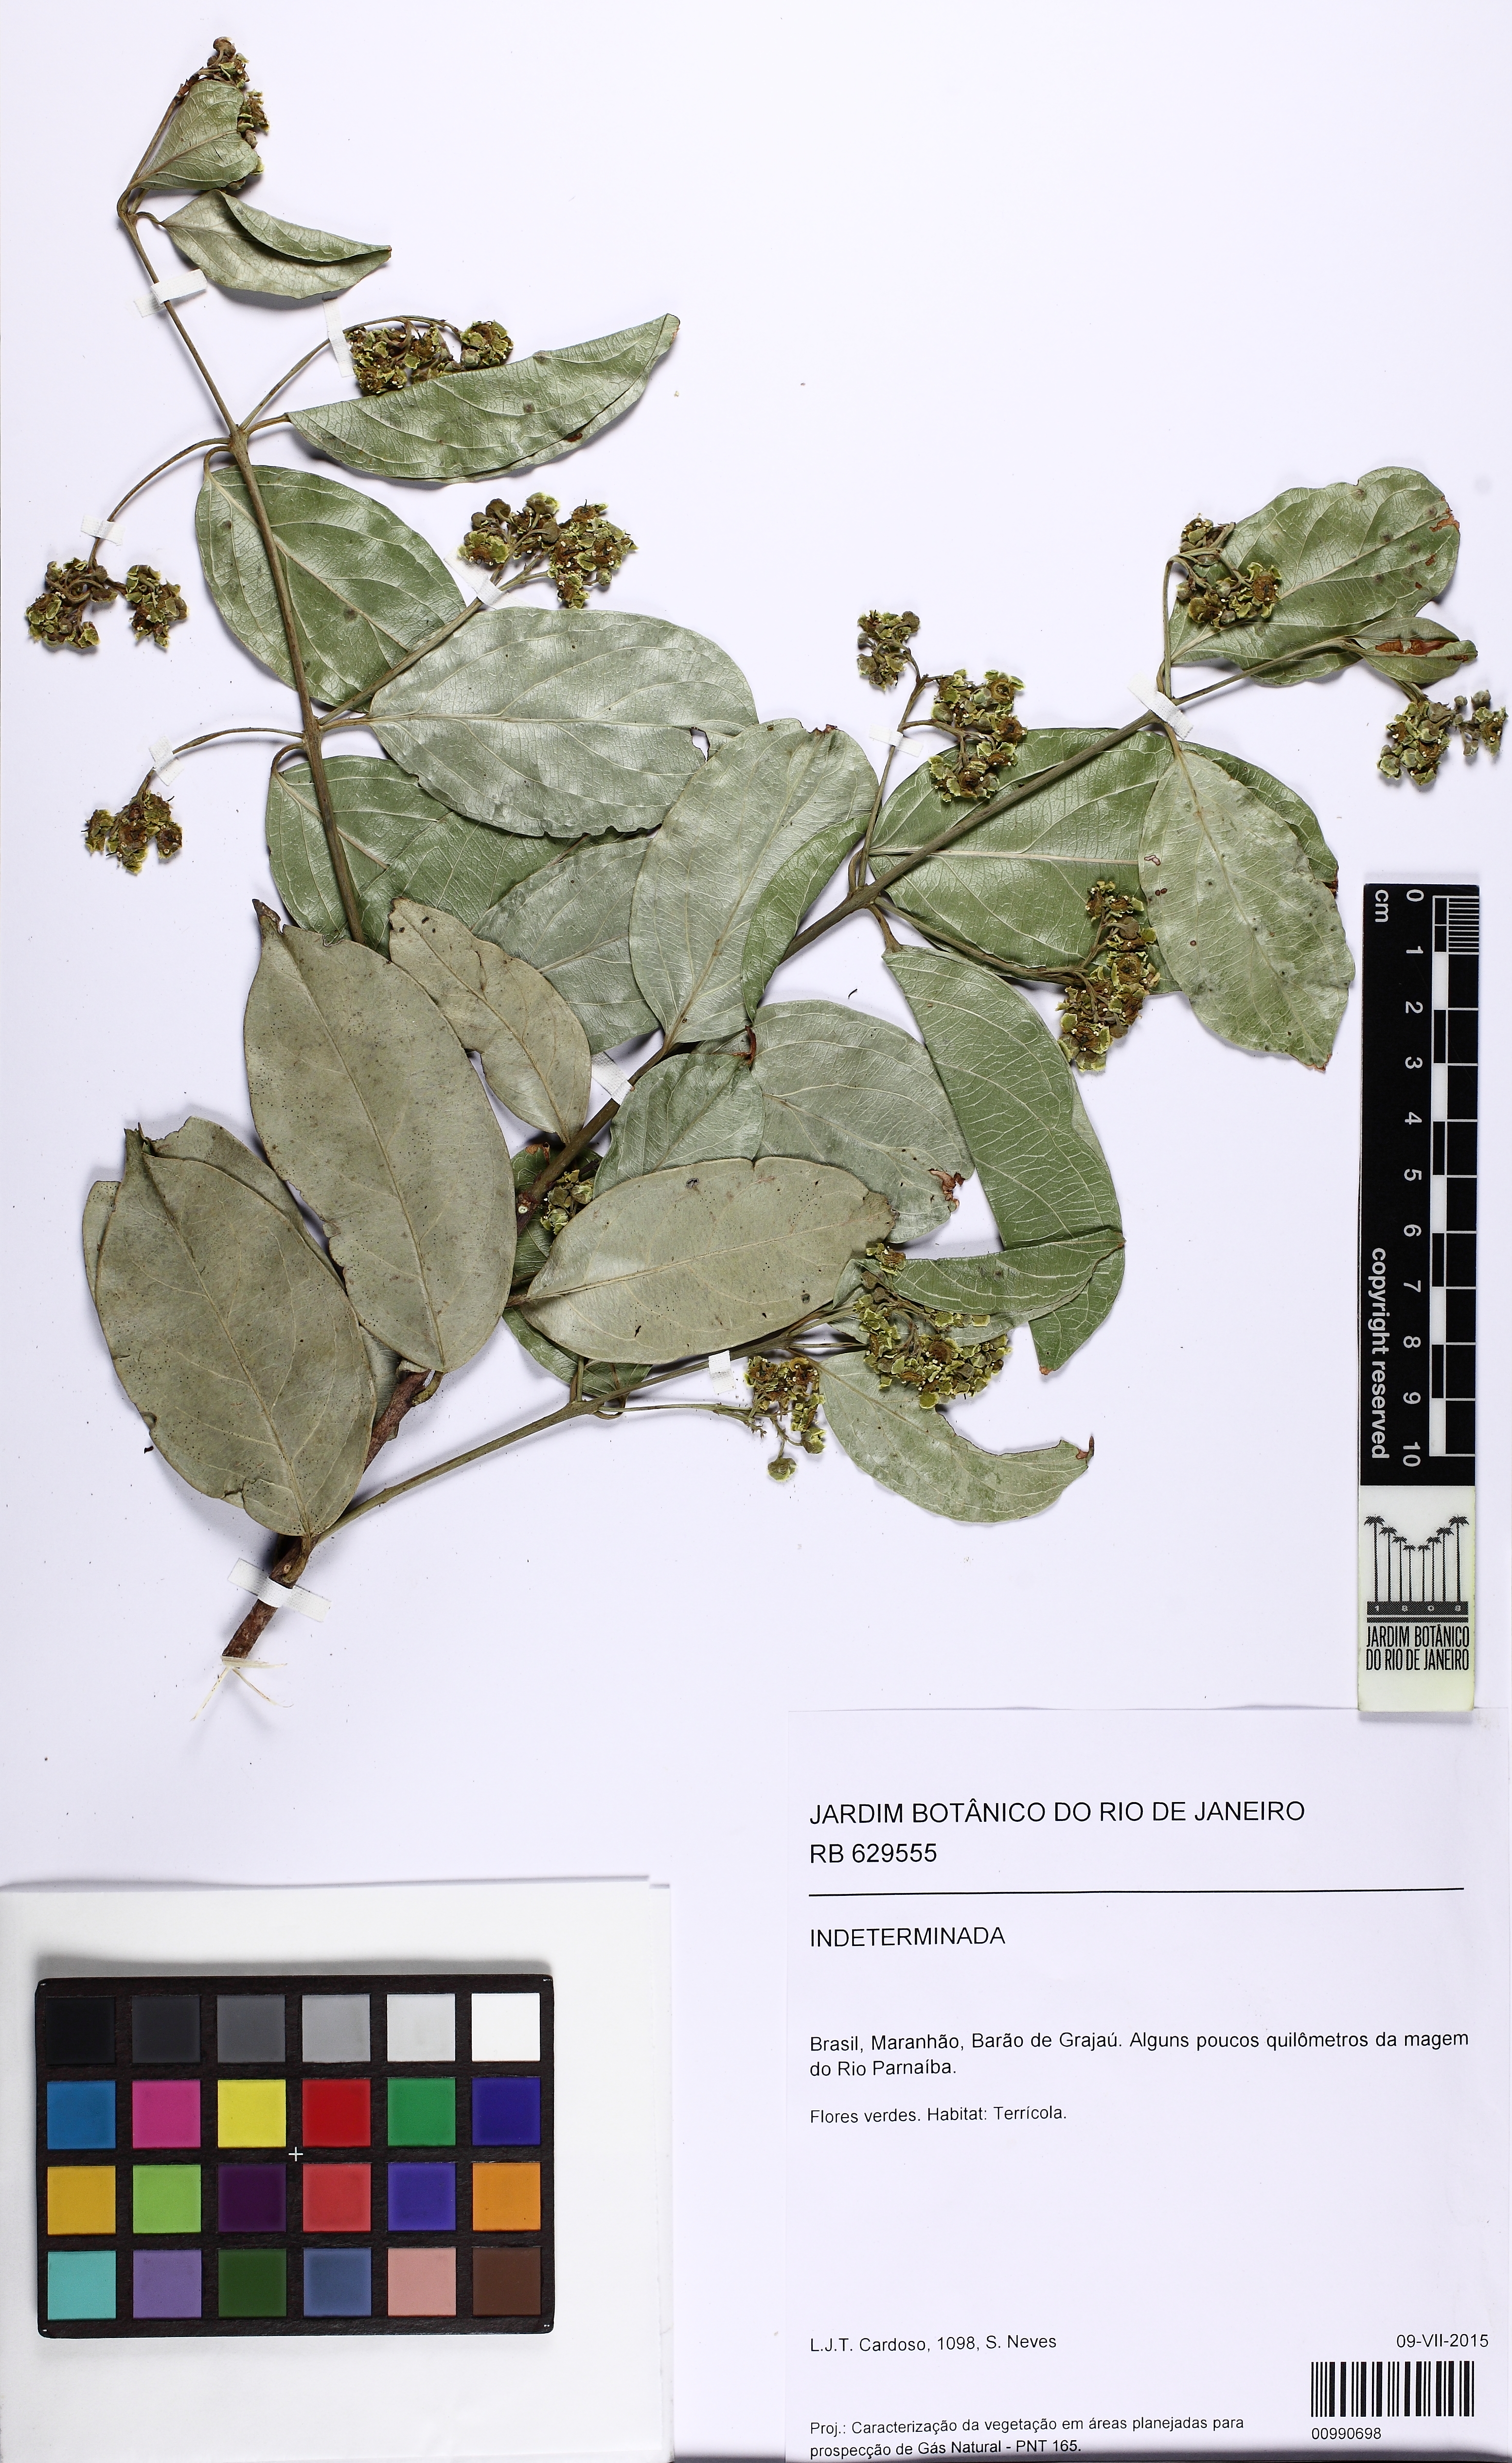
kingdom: Plantae
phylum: Tracheophyta
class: Magnoliopsida
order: Celastrales
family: Celastraceae
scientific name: Celastraceae
